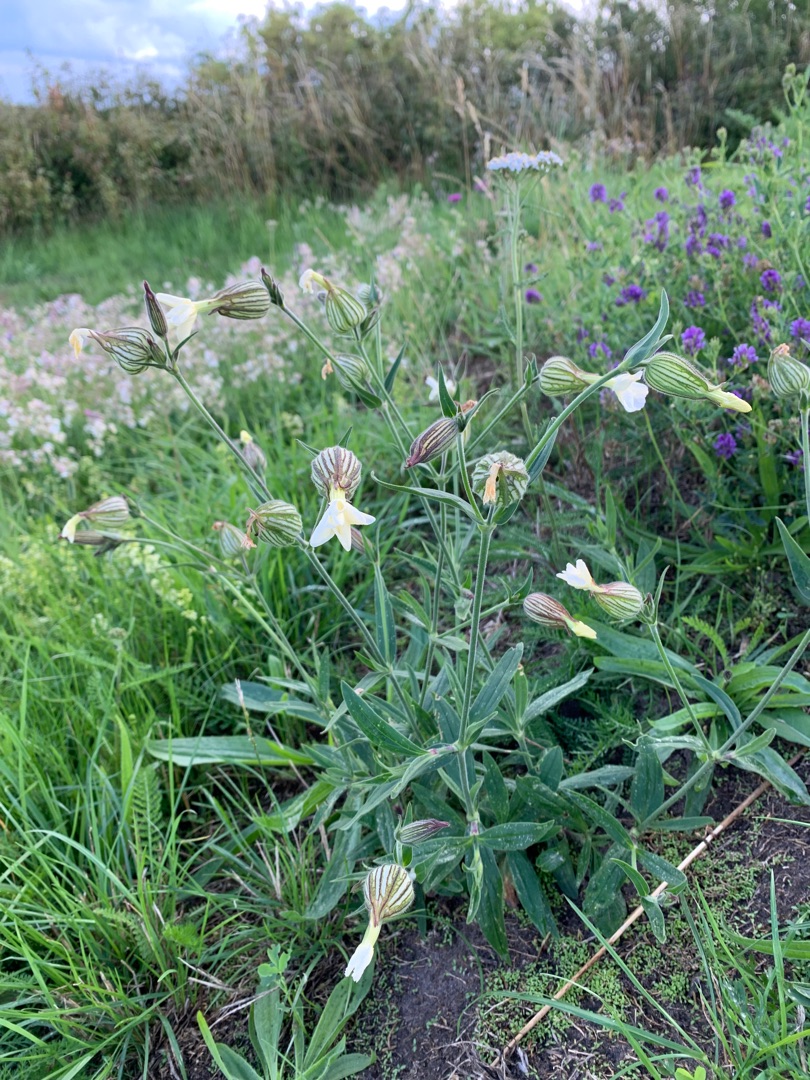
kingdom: Plantae
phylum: Tracheophyta
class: Magnoliopsida
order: Caryophyllales
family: Caryophyllaceae
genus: Silene
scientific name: Silene latifolia
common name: Aftenpragtstjerne
